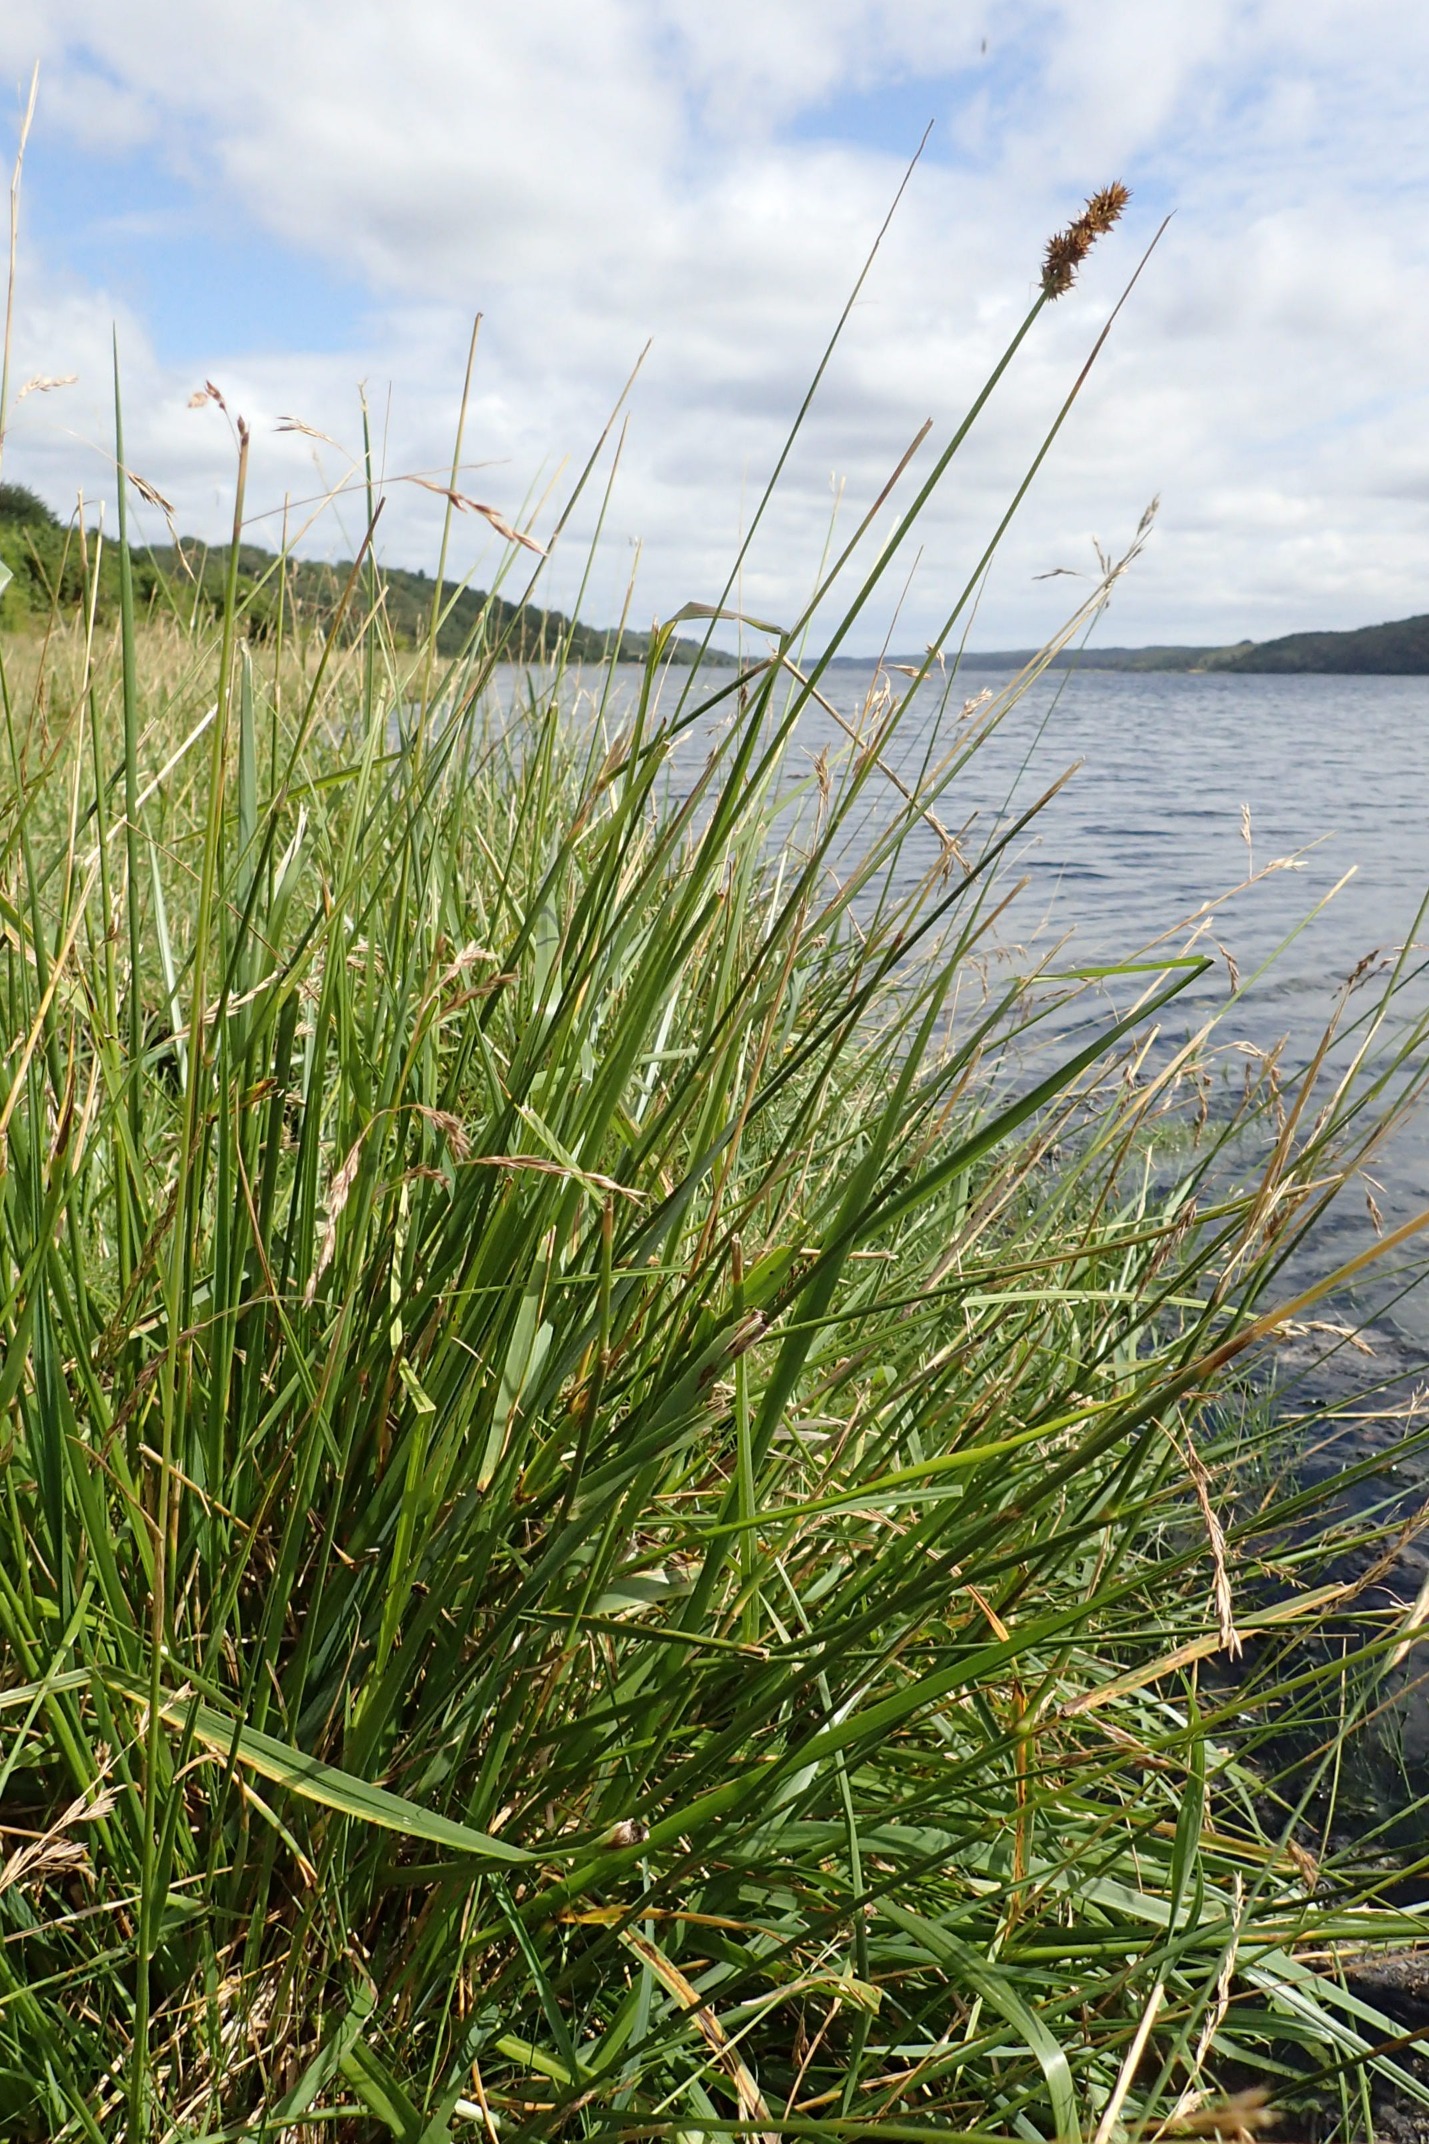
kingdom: Plantae
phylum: Tracheophyta
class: Liliopsida
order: Poales
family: Cyperaceae
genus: Carex
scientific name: Carex otrubae
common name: Sylt-star
